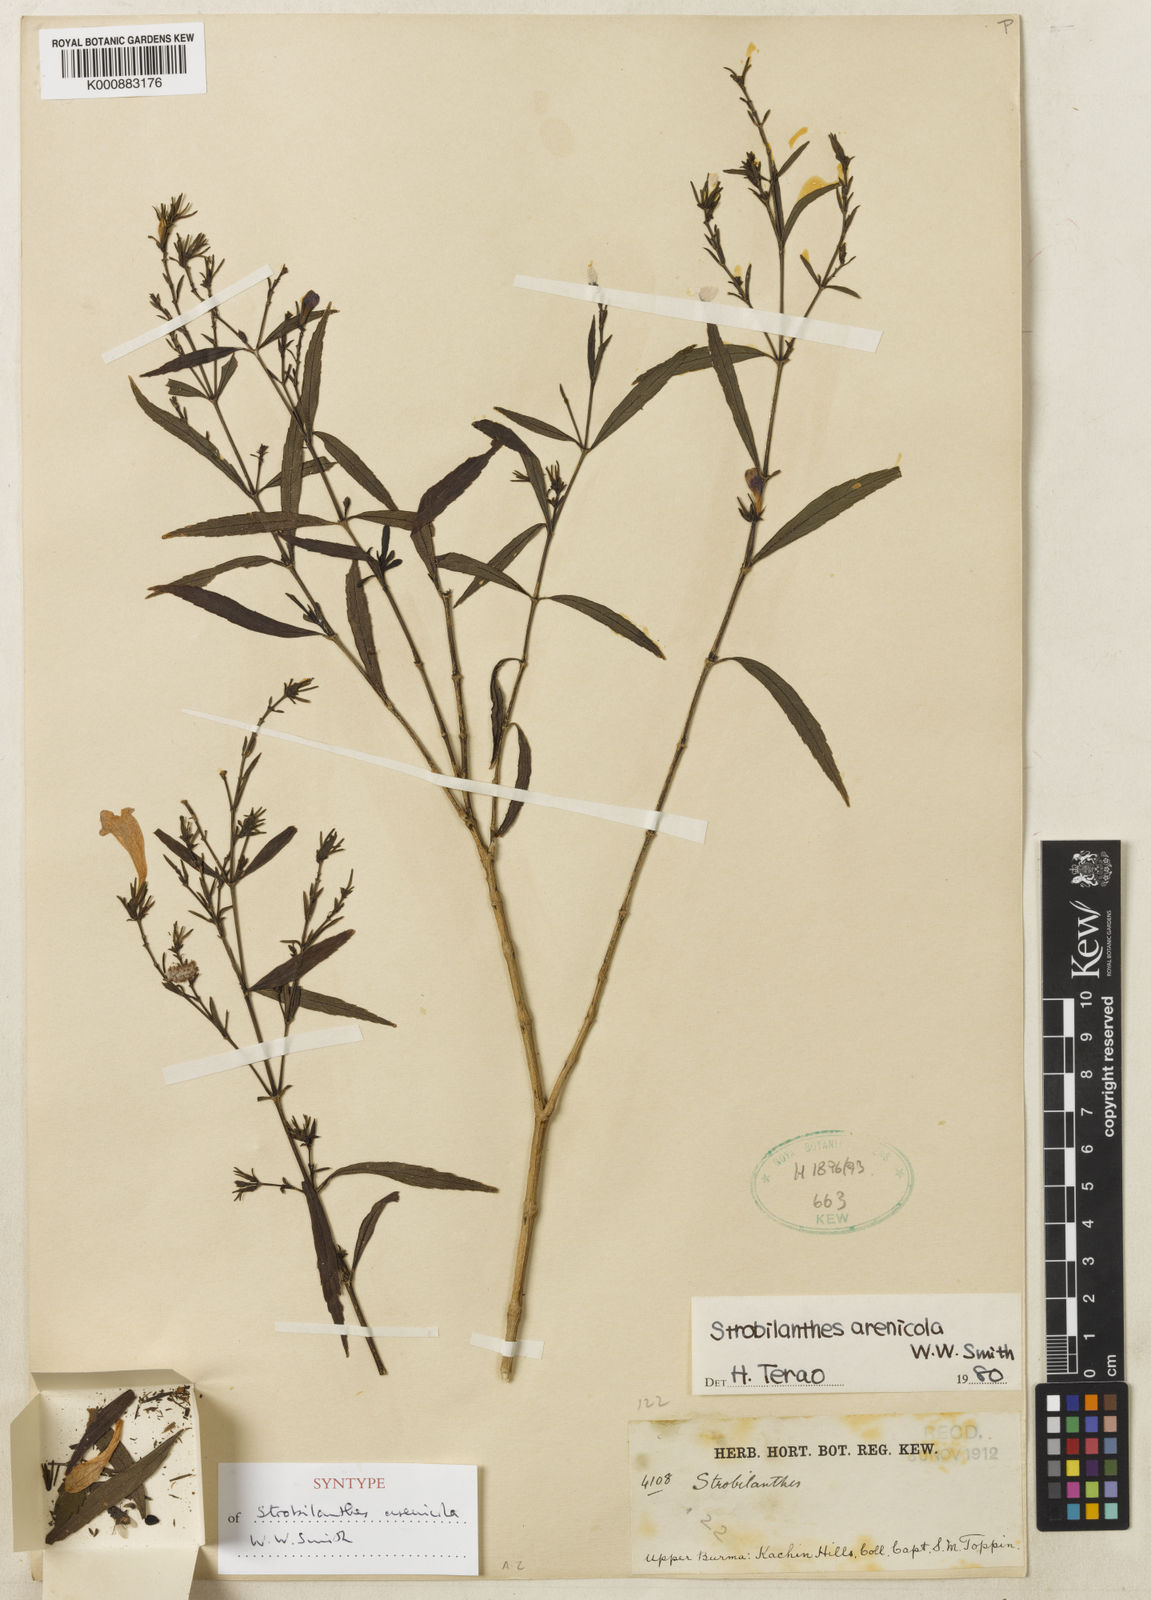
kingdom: Plantae
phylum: Tracheophyta
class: Magnoliopsida
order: Lamiales
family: Acanthaceae
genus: Strobilanthes
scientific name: Strobilanthes arenicola
